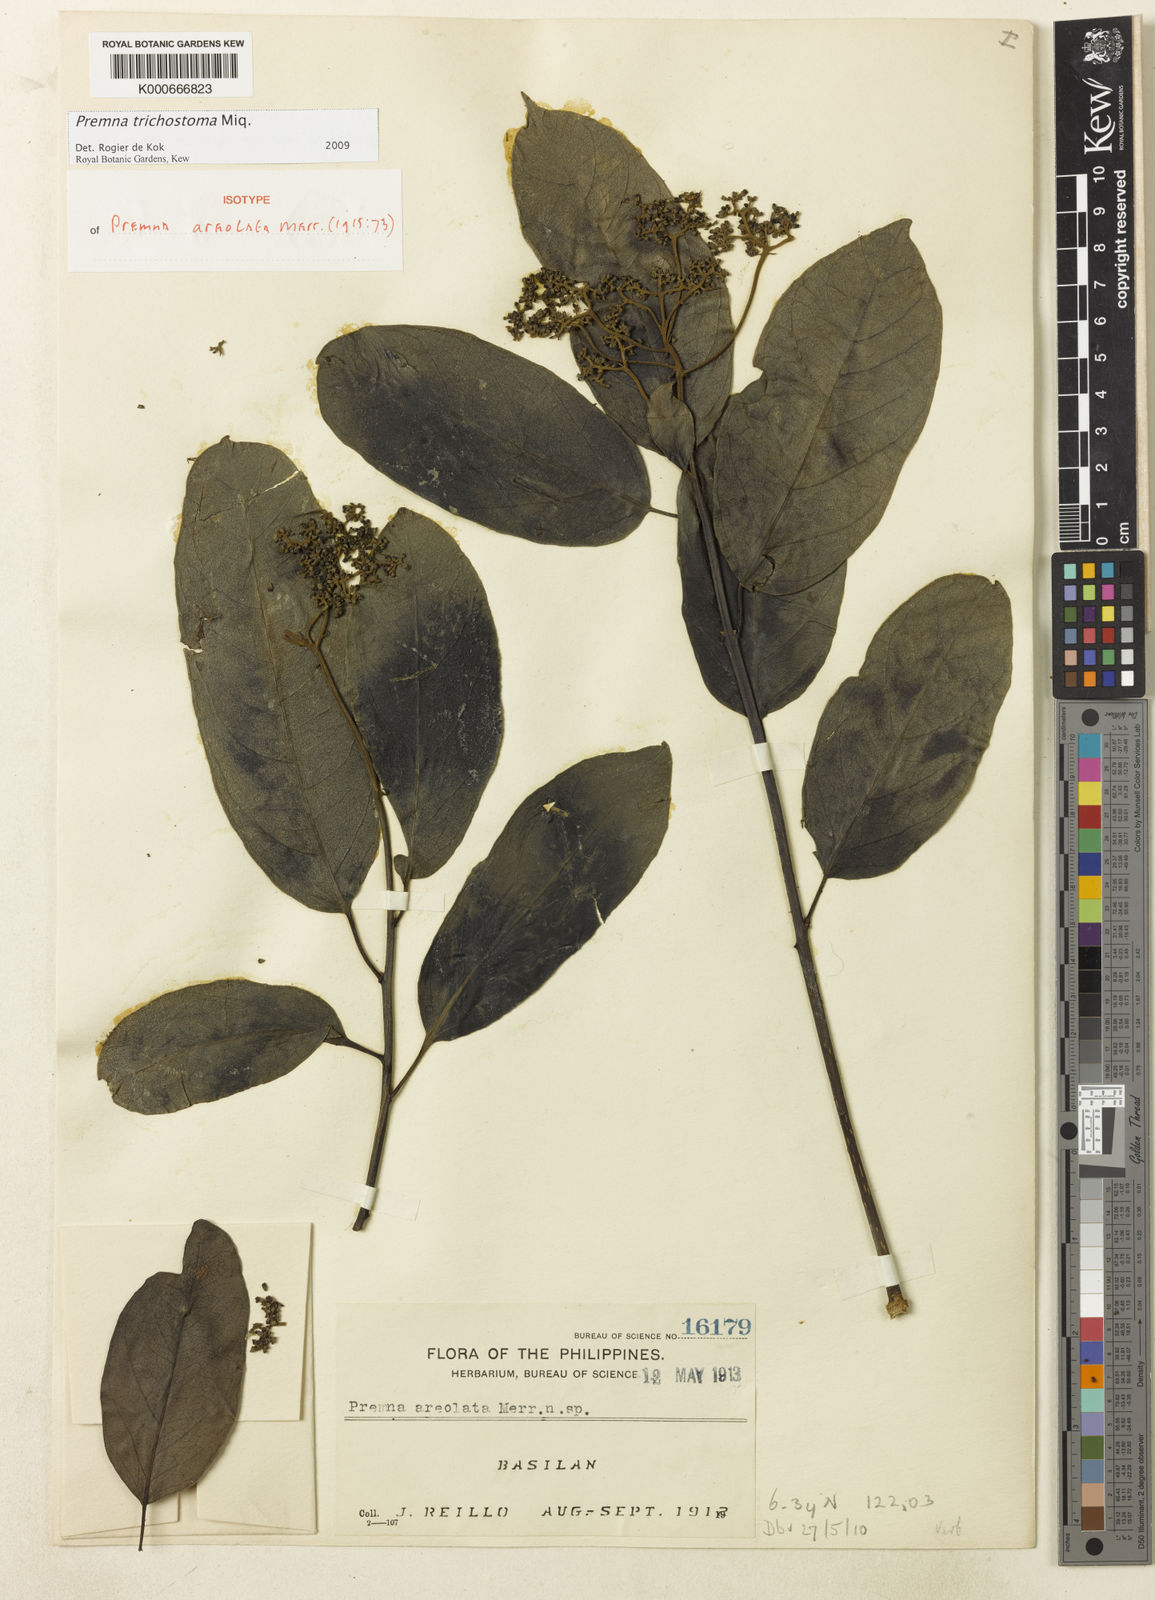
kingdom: Plantae
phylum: Tracheophyta
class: Magnoliopsida
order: Lamiales
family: Lamiaceae
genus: Premna
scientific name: Premna trichostoma
